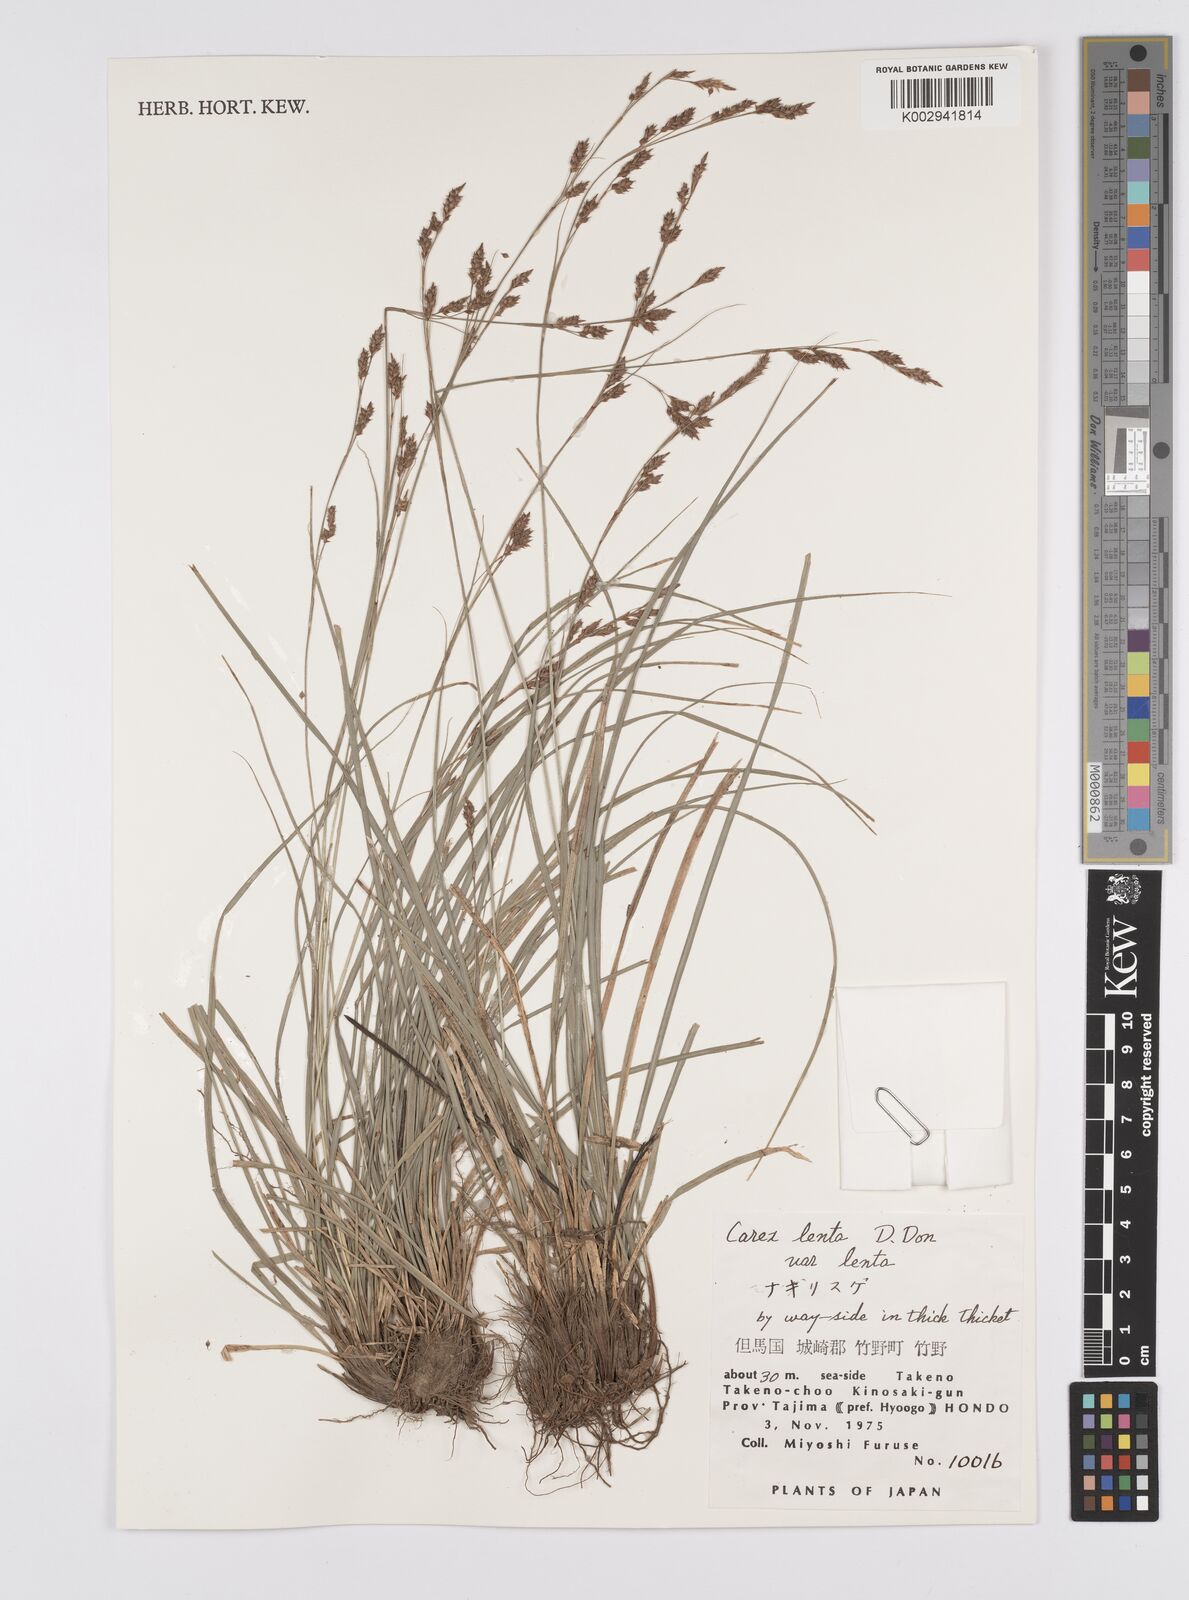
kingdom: Plantae
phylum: Tracheophyta
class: Liliopsida
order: Poales
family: Cyperaceae
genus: Carex
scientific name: Carex brunnea
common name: Greater brown sedge
